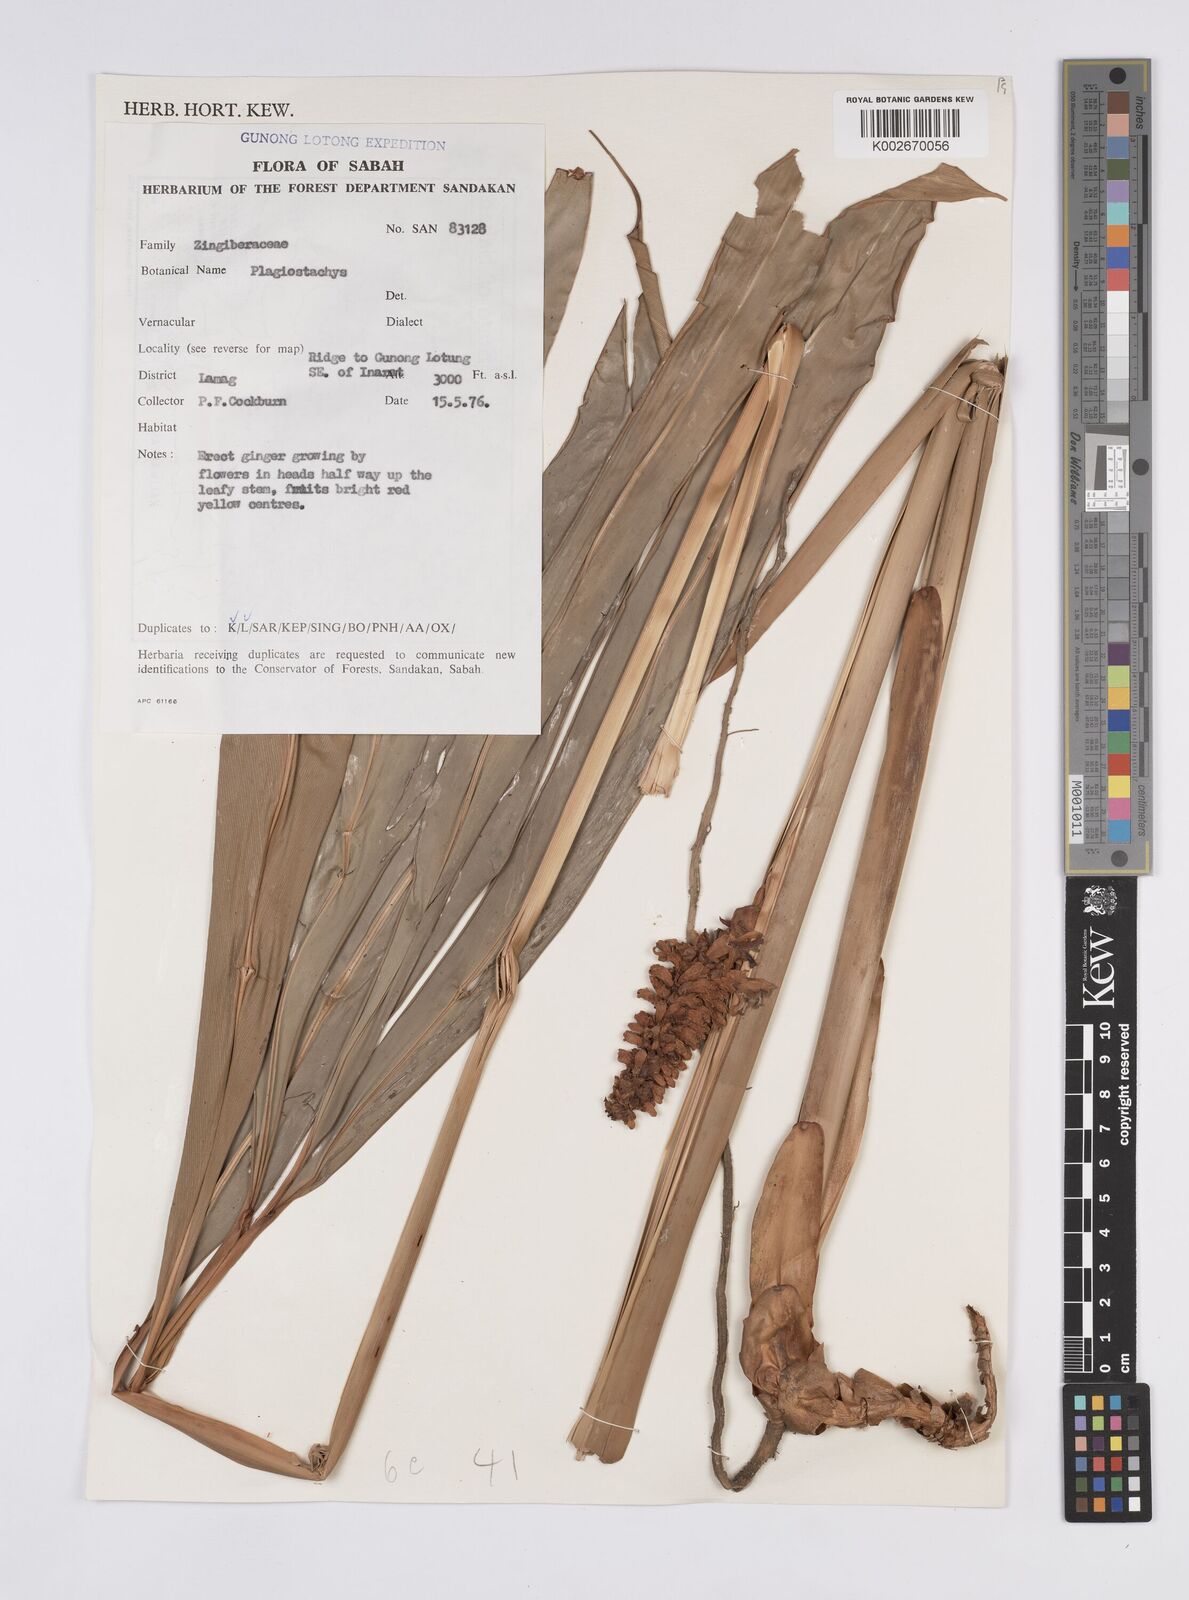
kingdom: Plantae
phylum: Tracheophyta
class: Liliopsida
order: Zingiberales
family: Zingiberaceae
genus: Plagiostachys
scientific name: Plagiostachys
